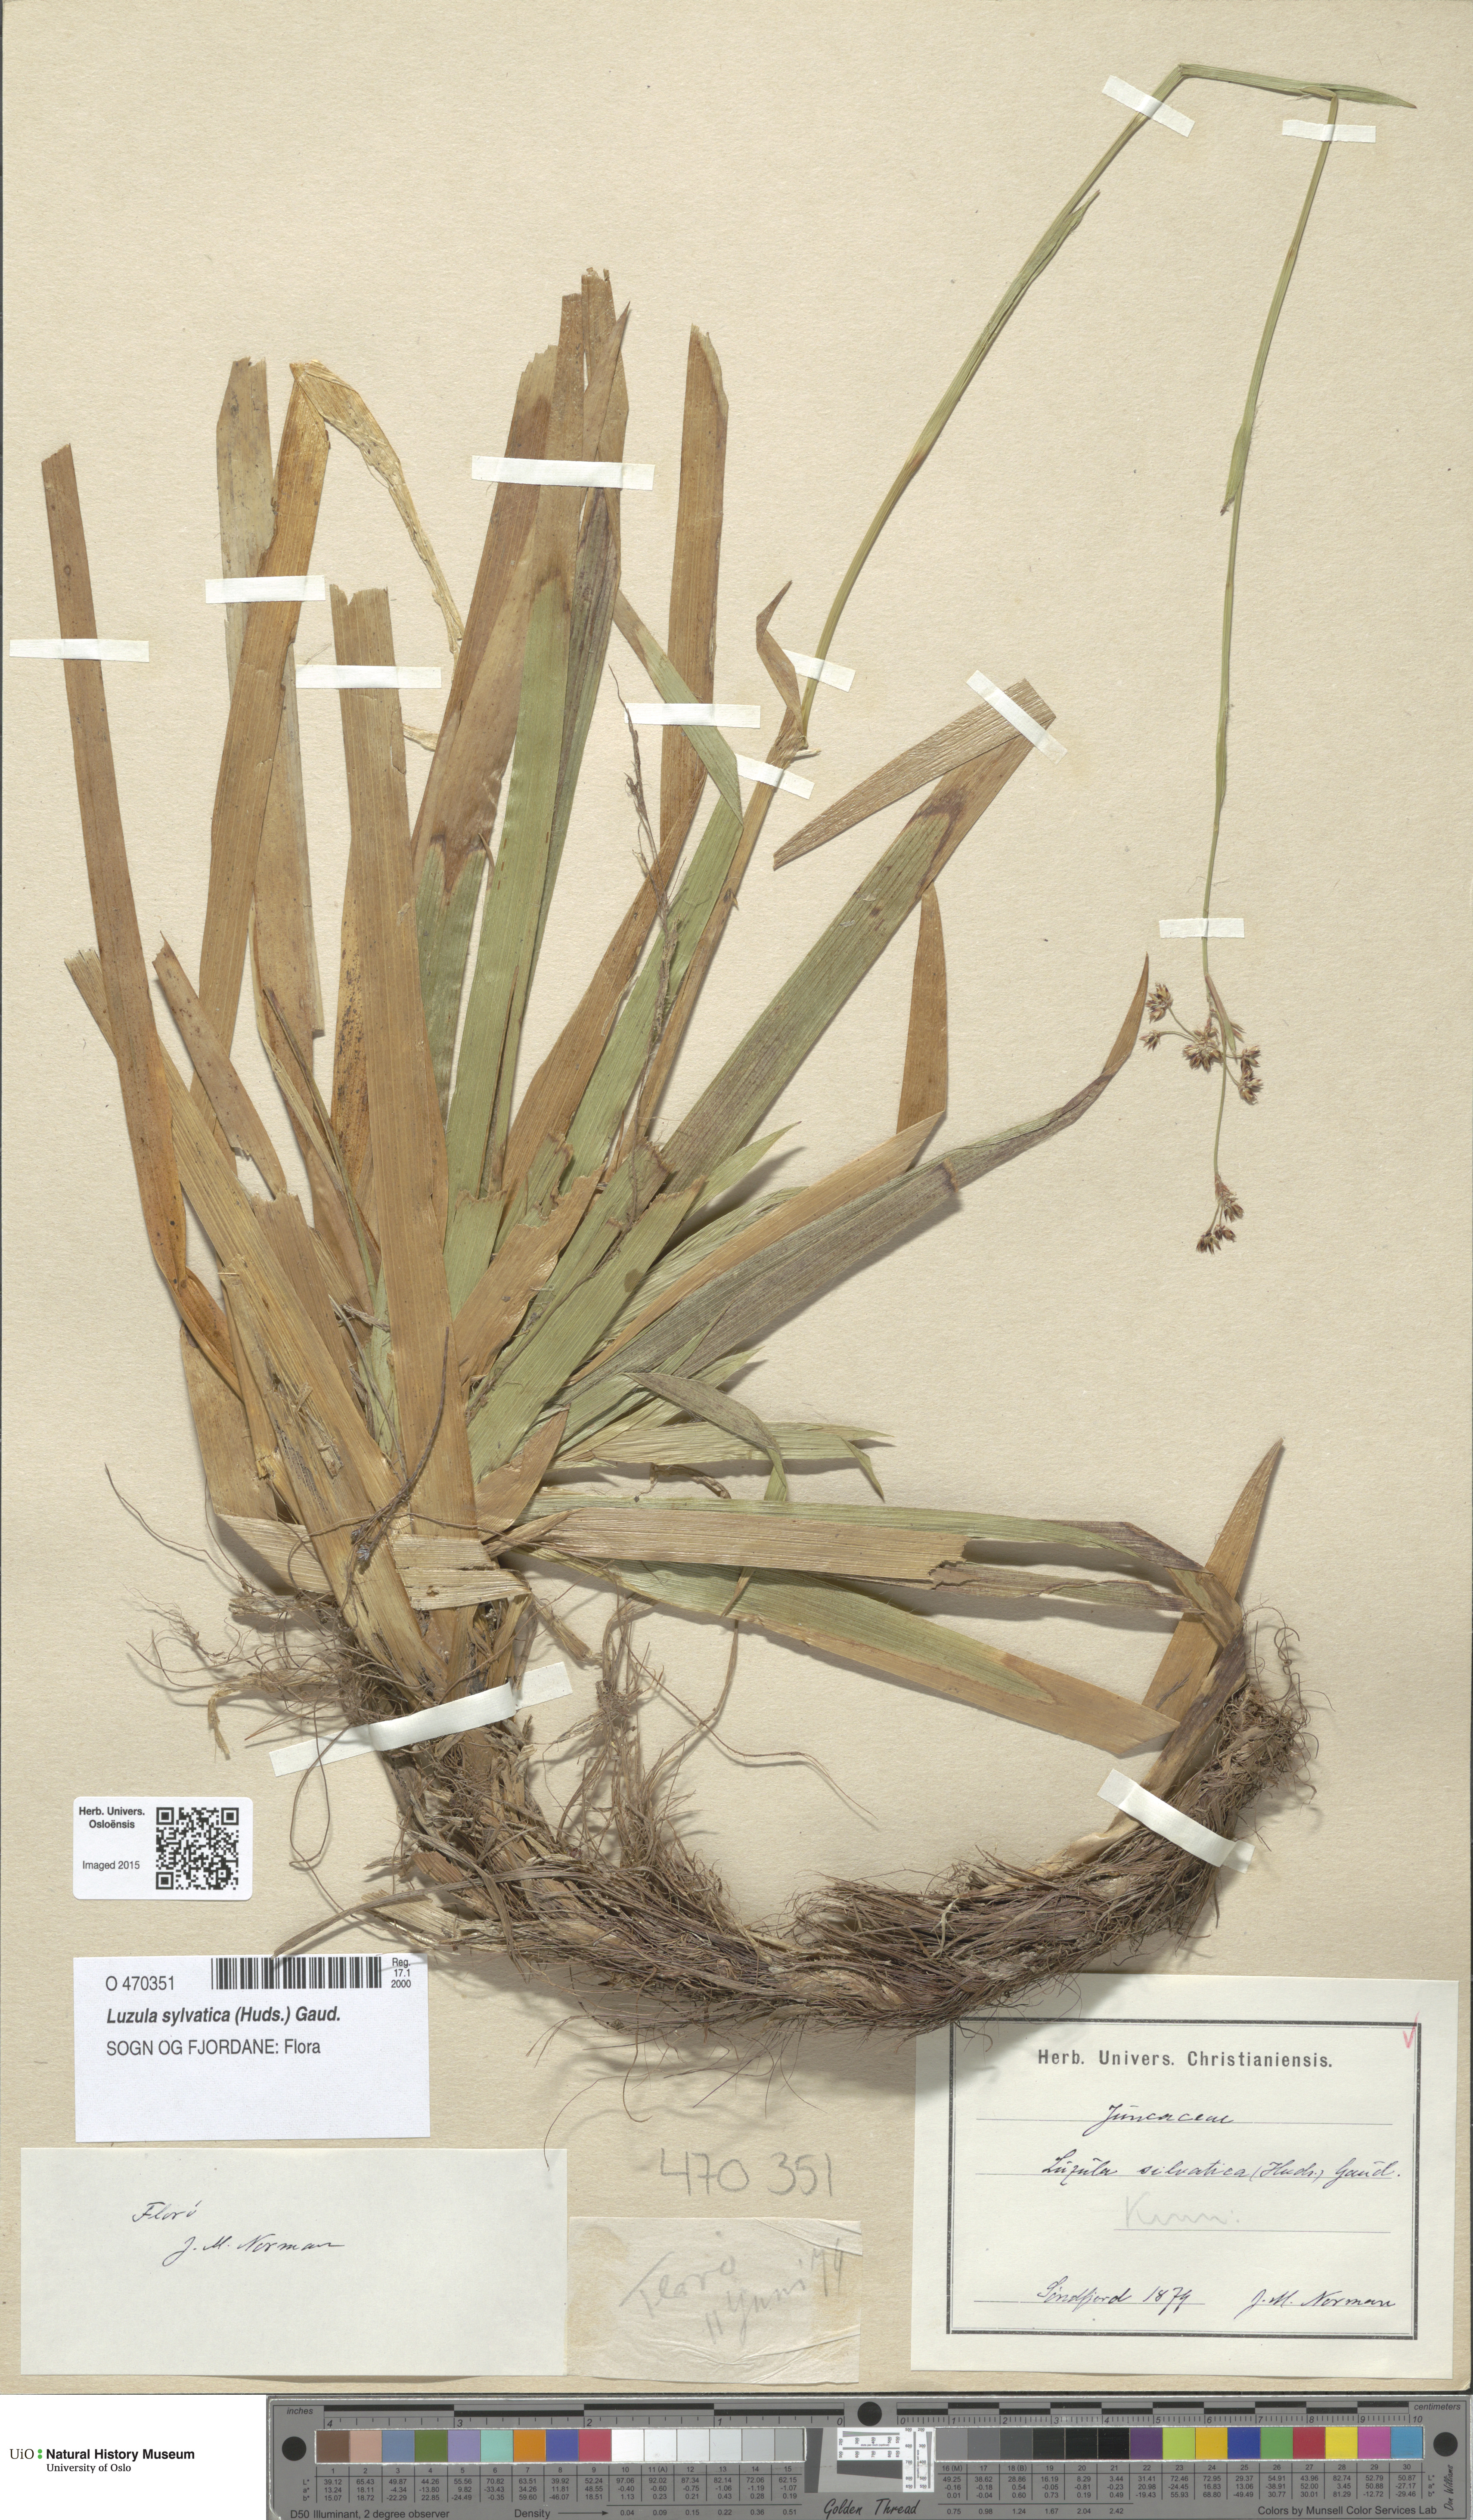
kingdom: Plantae
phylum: Tracheophyta
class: Liliopsida
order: Poales
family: Juncaceae
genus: Luzula
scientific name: Luzula sylvatica
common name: Great wood-rush
